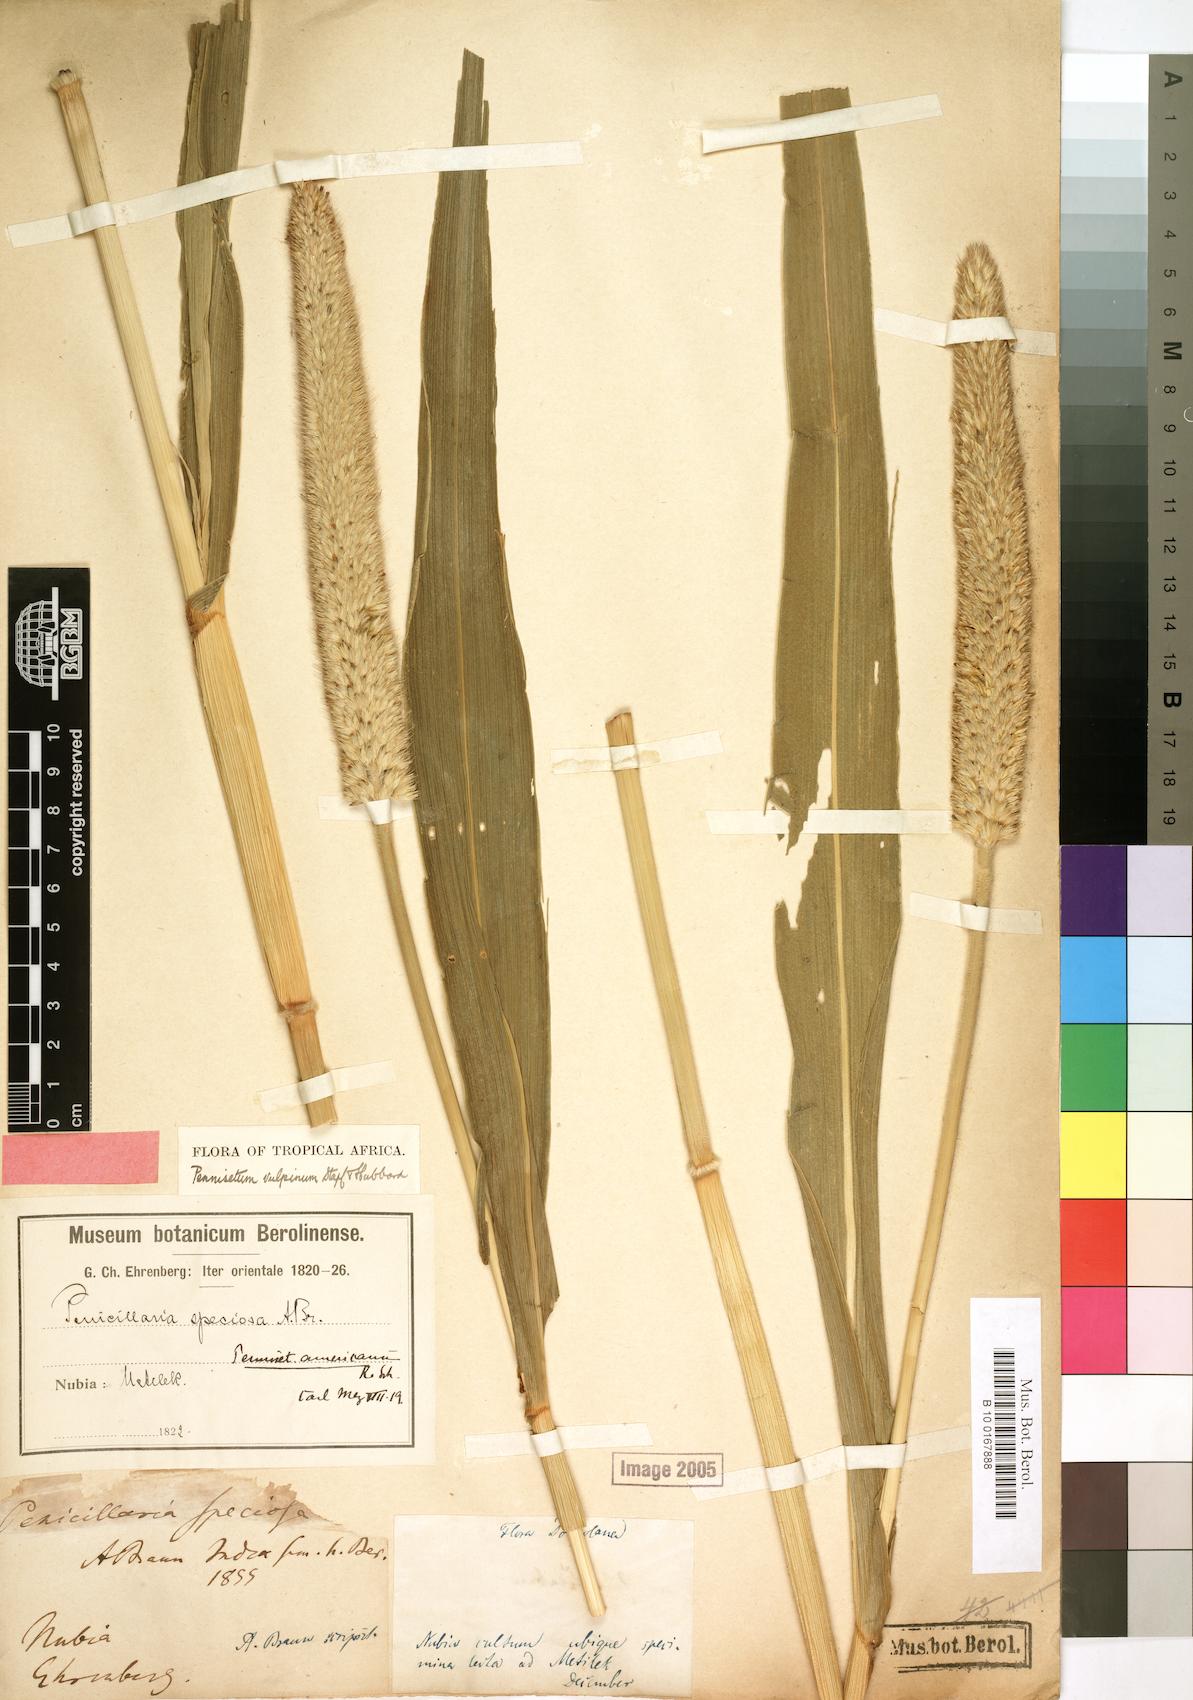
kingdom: Plantae
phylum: Tracheophyta
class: Liliopsida
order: Poales
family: Poaceae
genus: Cenchrus
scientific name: Cenchrus sieberianus
